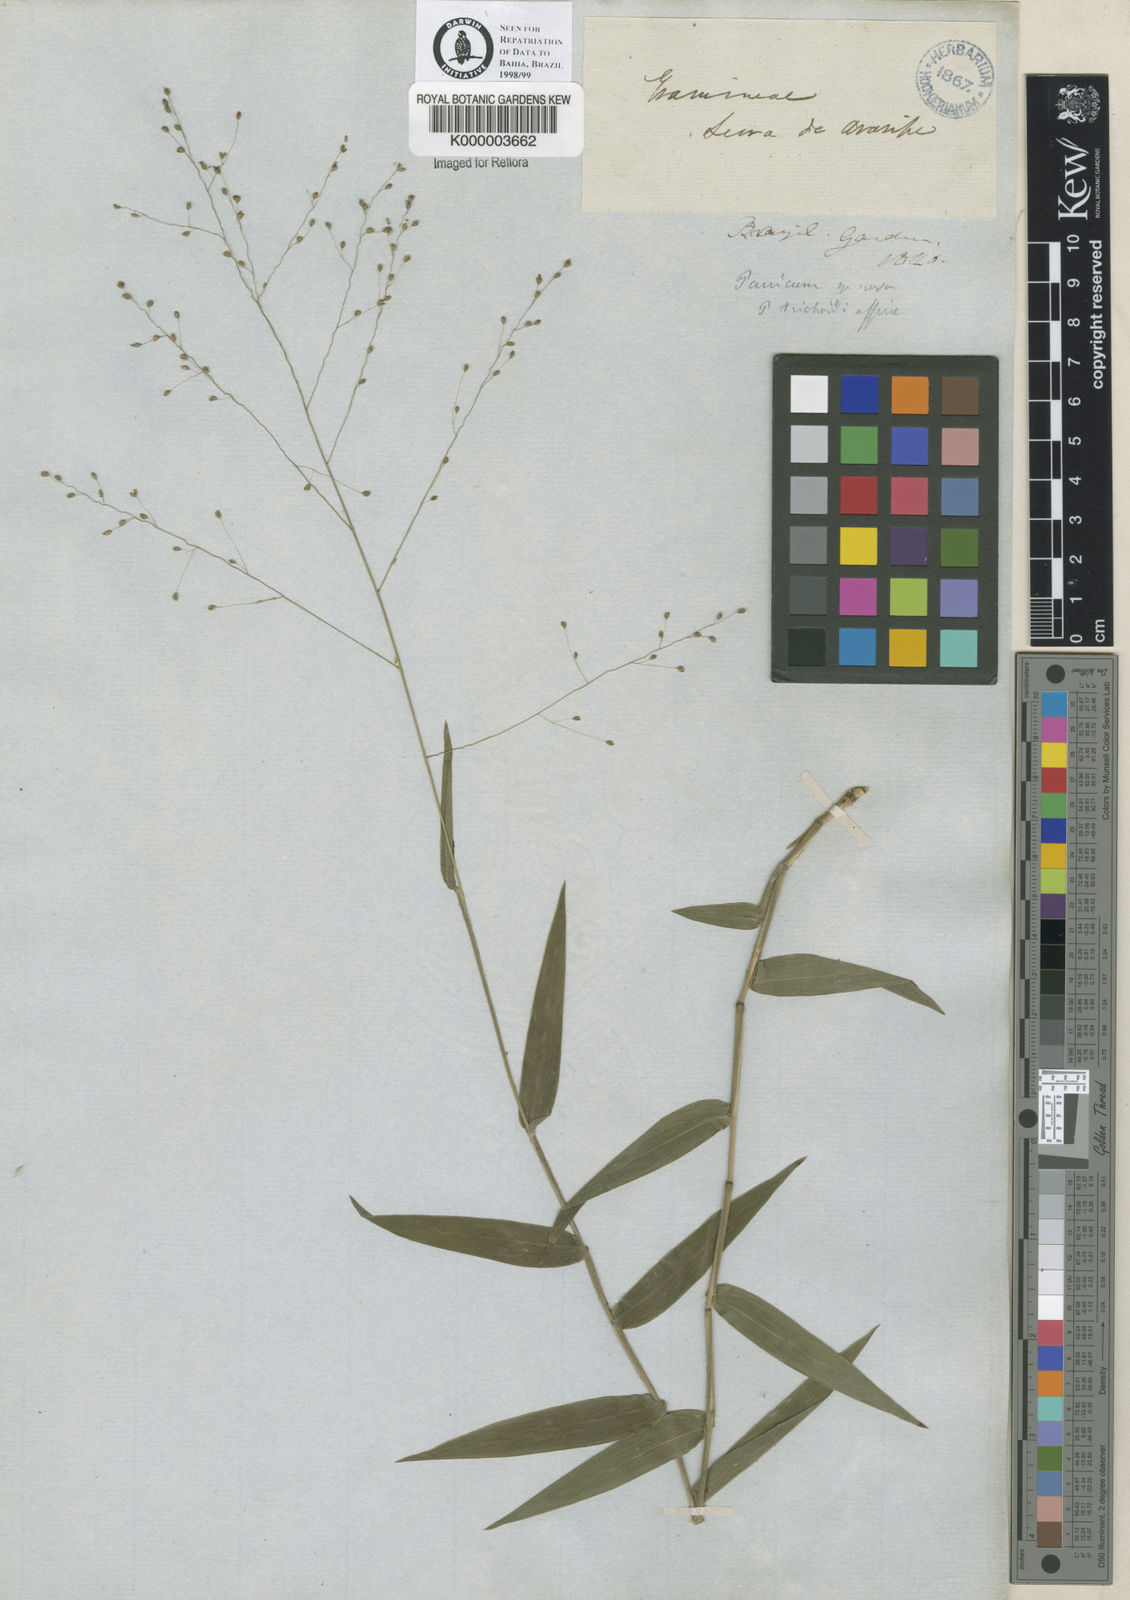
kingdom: Plantae
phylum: Tracheophyta
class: Liliopsida
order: Poales
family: Poaceae
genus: Panicum
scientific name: Panicum millegrana
